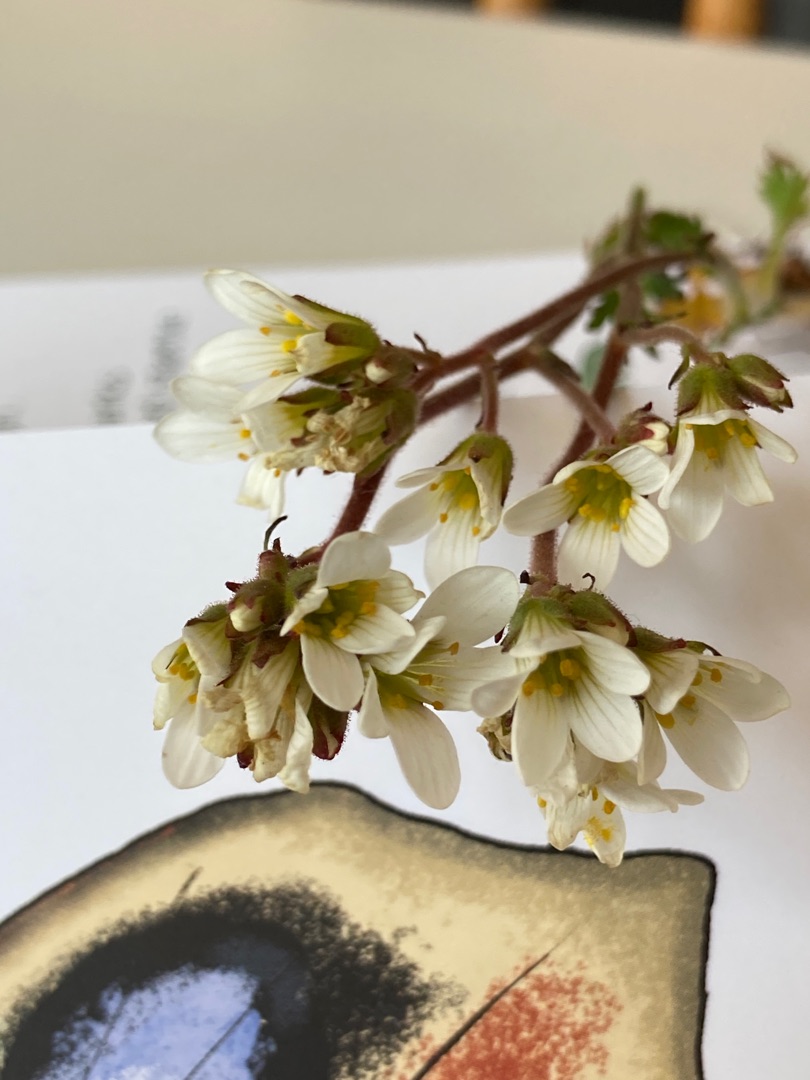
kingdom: Plantae
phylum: Tracheophyta
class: Magnoliopsida
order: Saxifragales
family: Saxifragaceae
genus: Saxifraga
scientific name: Saxifraga granulata
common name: Kornet stenbræk
